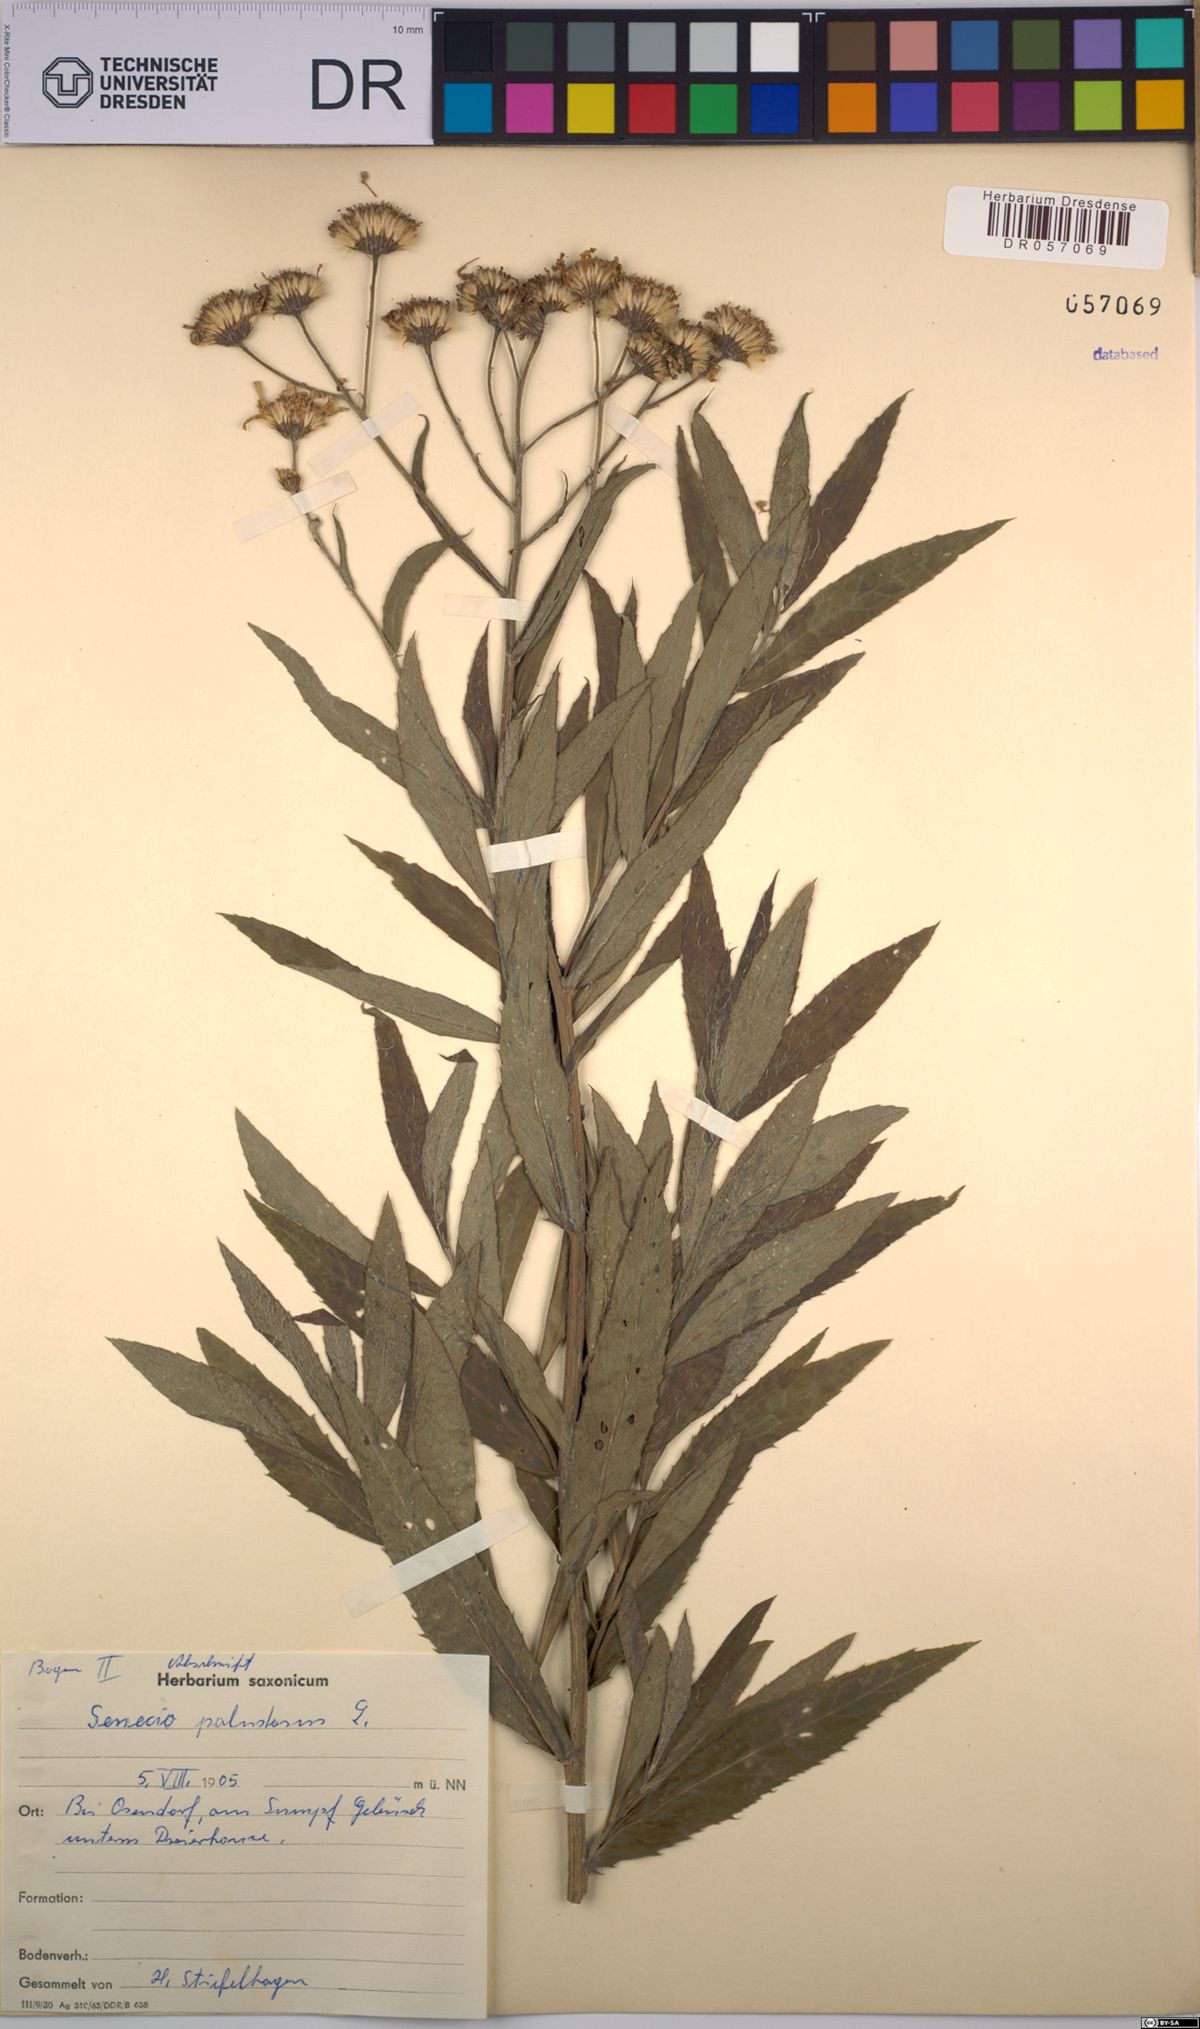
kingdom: Plantae
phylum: Tracheophyta
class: Magnoliopsida
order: Asterales
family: Asteraceae
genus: Jacobaea
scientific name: Jacobaea paludosa
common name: Fen ragwort
